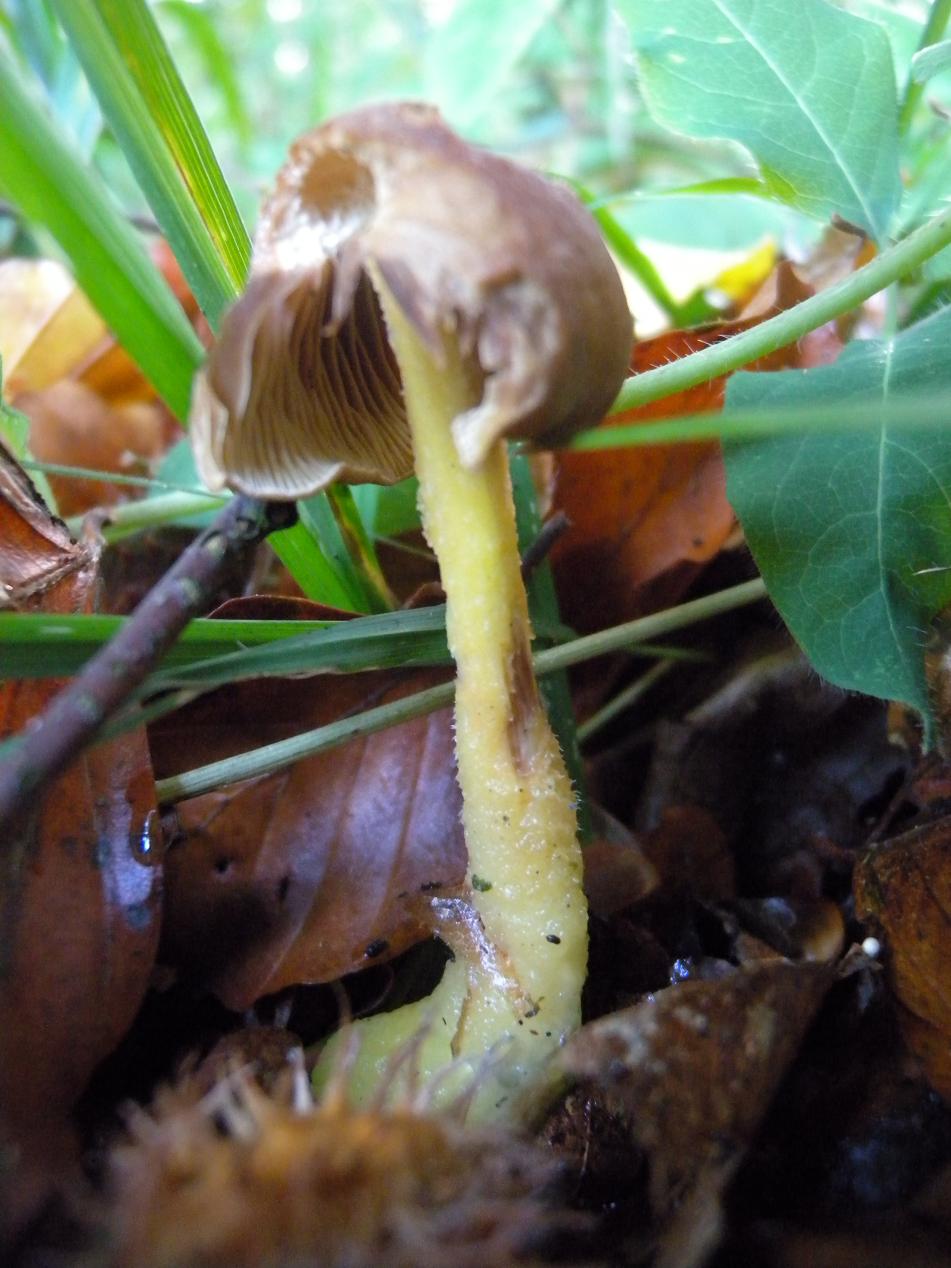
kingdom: Fungi
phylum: Basidiomycota
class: Agaricomycetes
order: Agaricales
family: Omphalotaceae
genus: Collybiopsis
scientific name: Collybiopsis peronata
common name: bestøvlet fladhat
